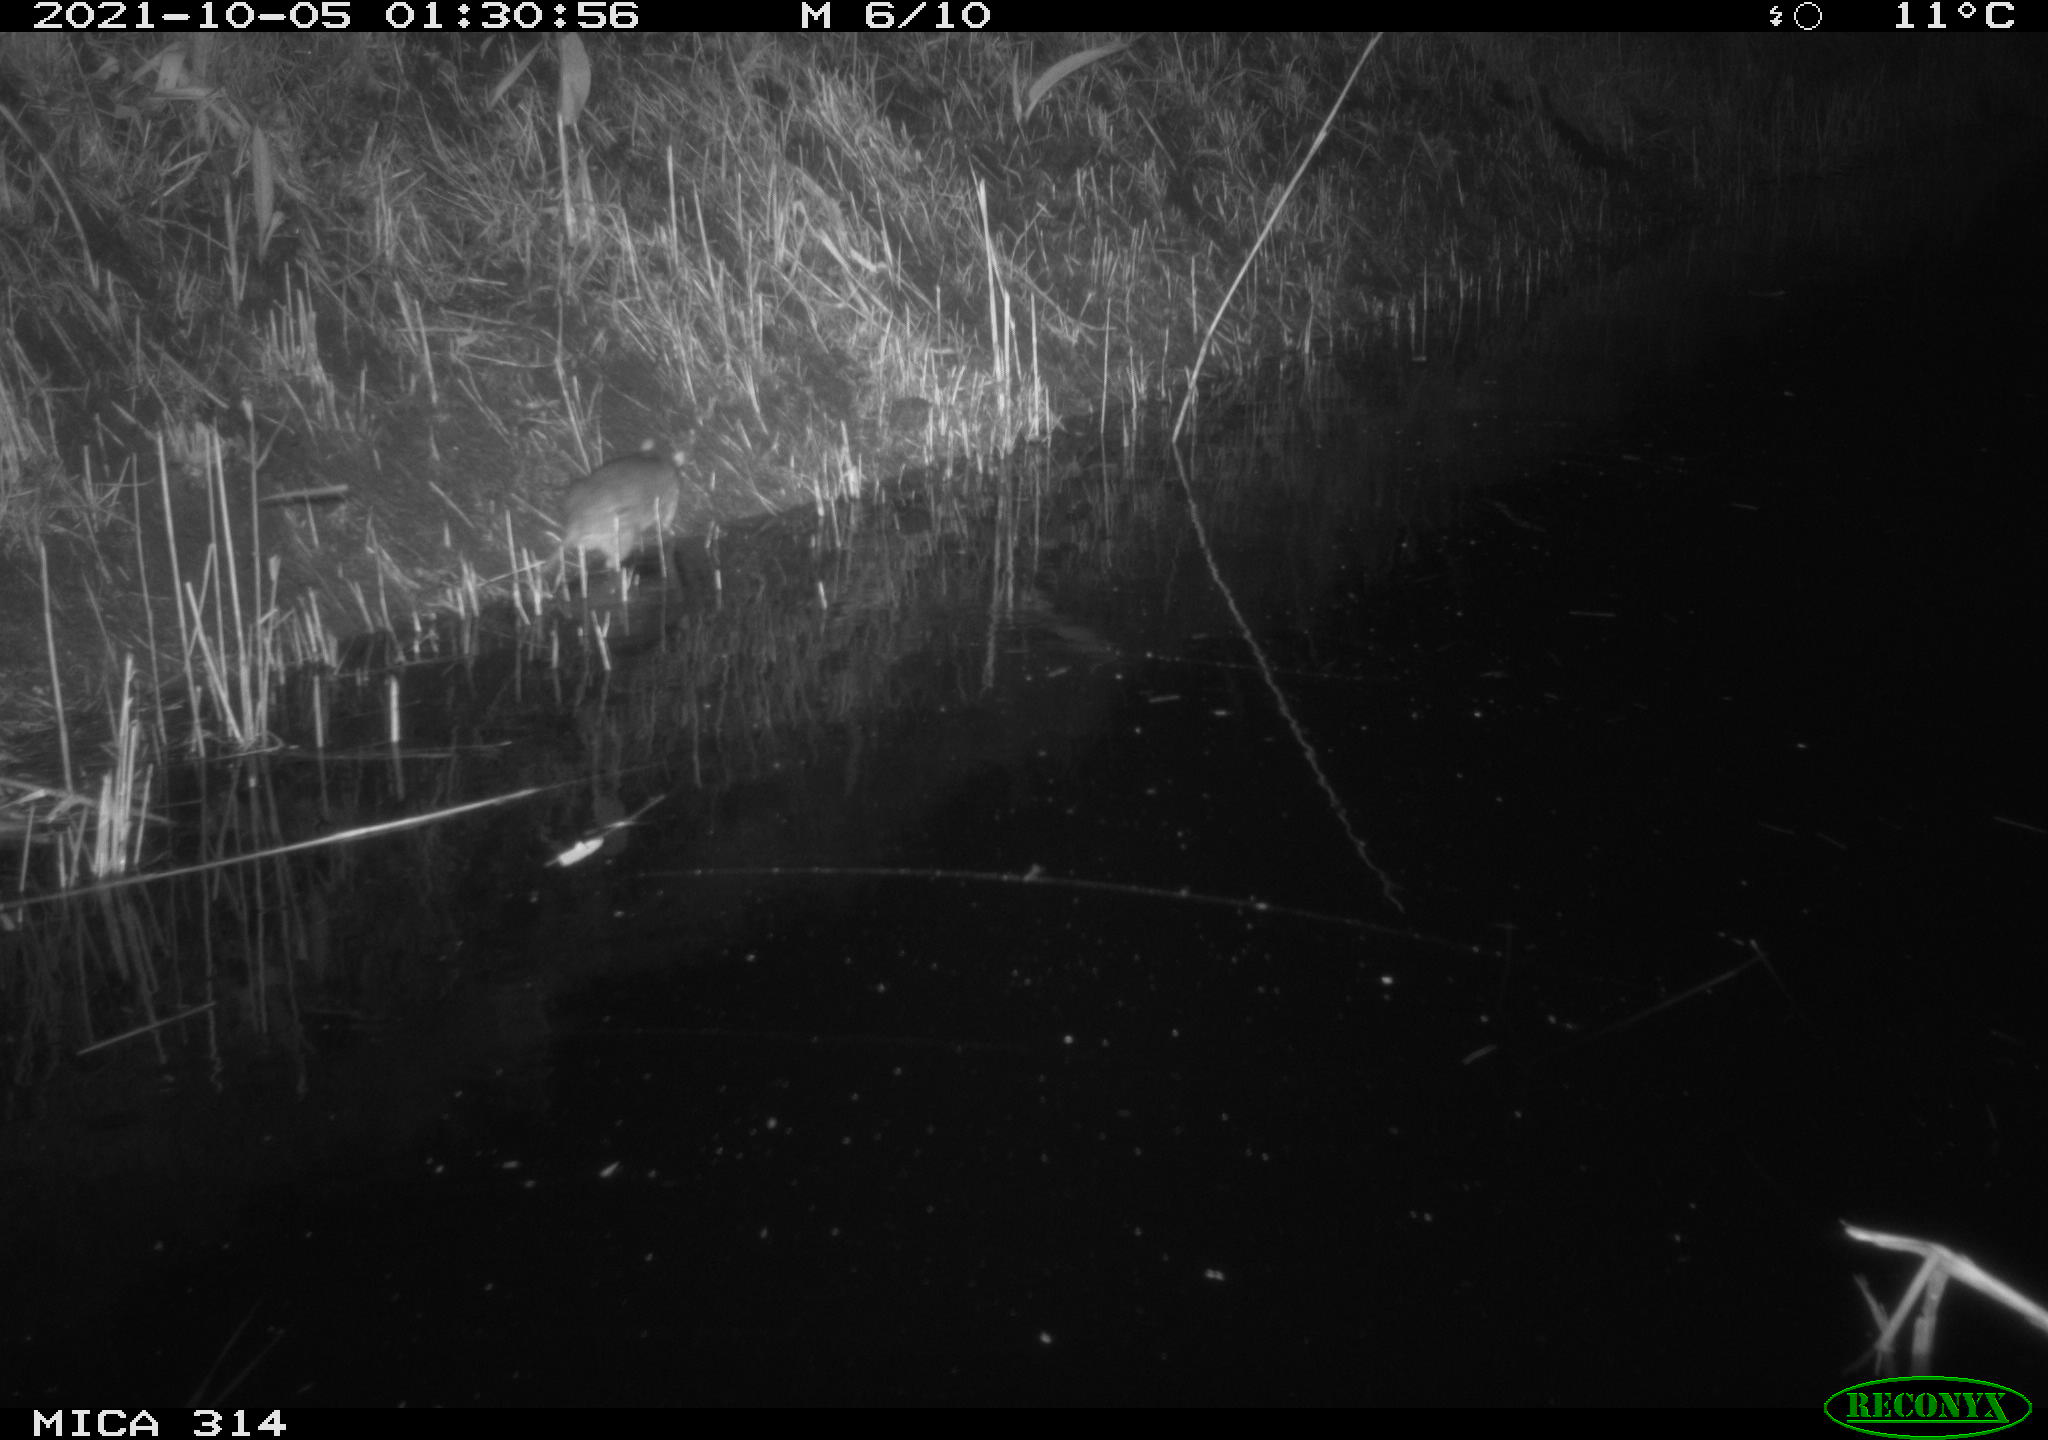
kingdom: Animalia
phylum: Chordata
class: Mammalia
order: Rodentia
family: Muridae
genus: Rattus
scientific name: Rattus norvegicus
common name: Brown rat
